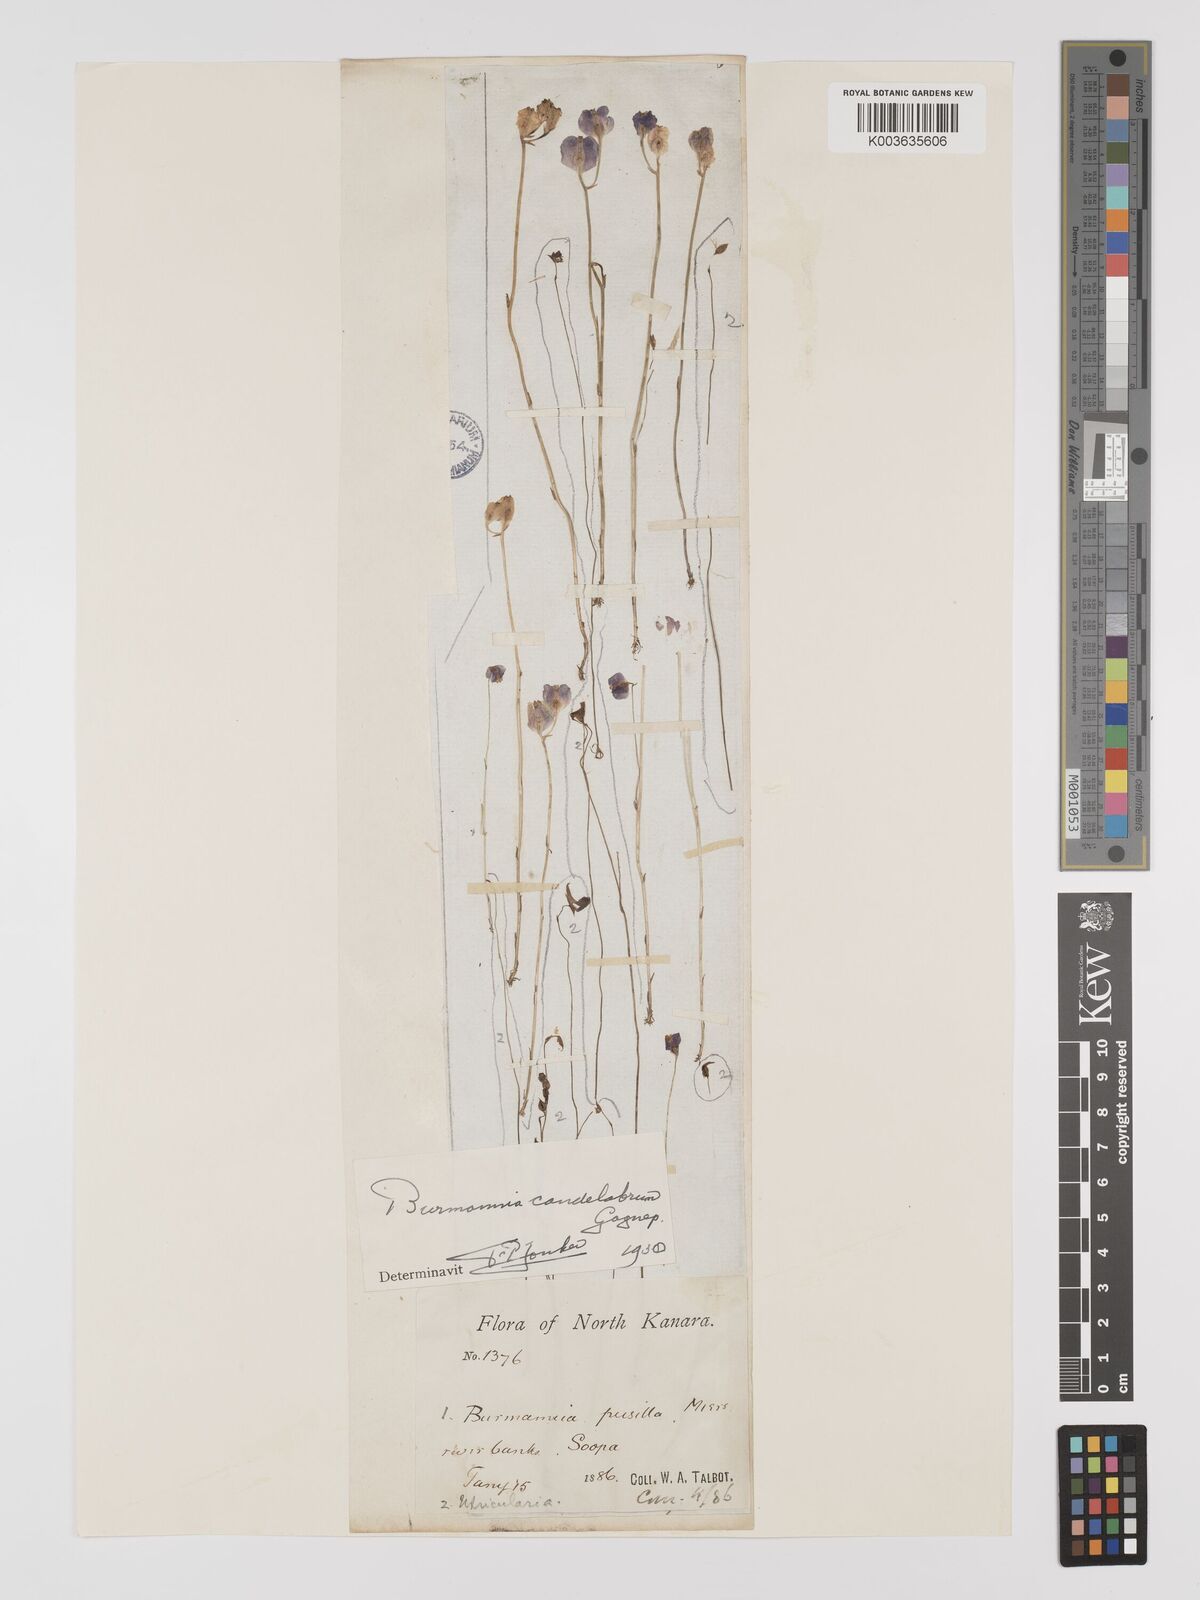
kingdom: Plantae
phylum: Tracheophyta
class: Liliopsida
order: Dioscoreales
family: Burmanniaceae
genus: Burmannia
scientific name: Burmannia candelabrum
